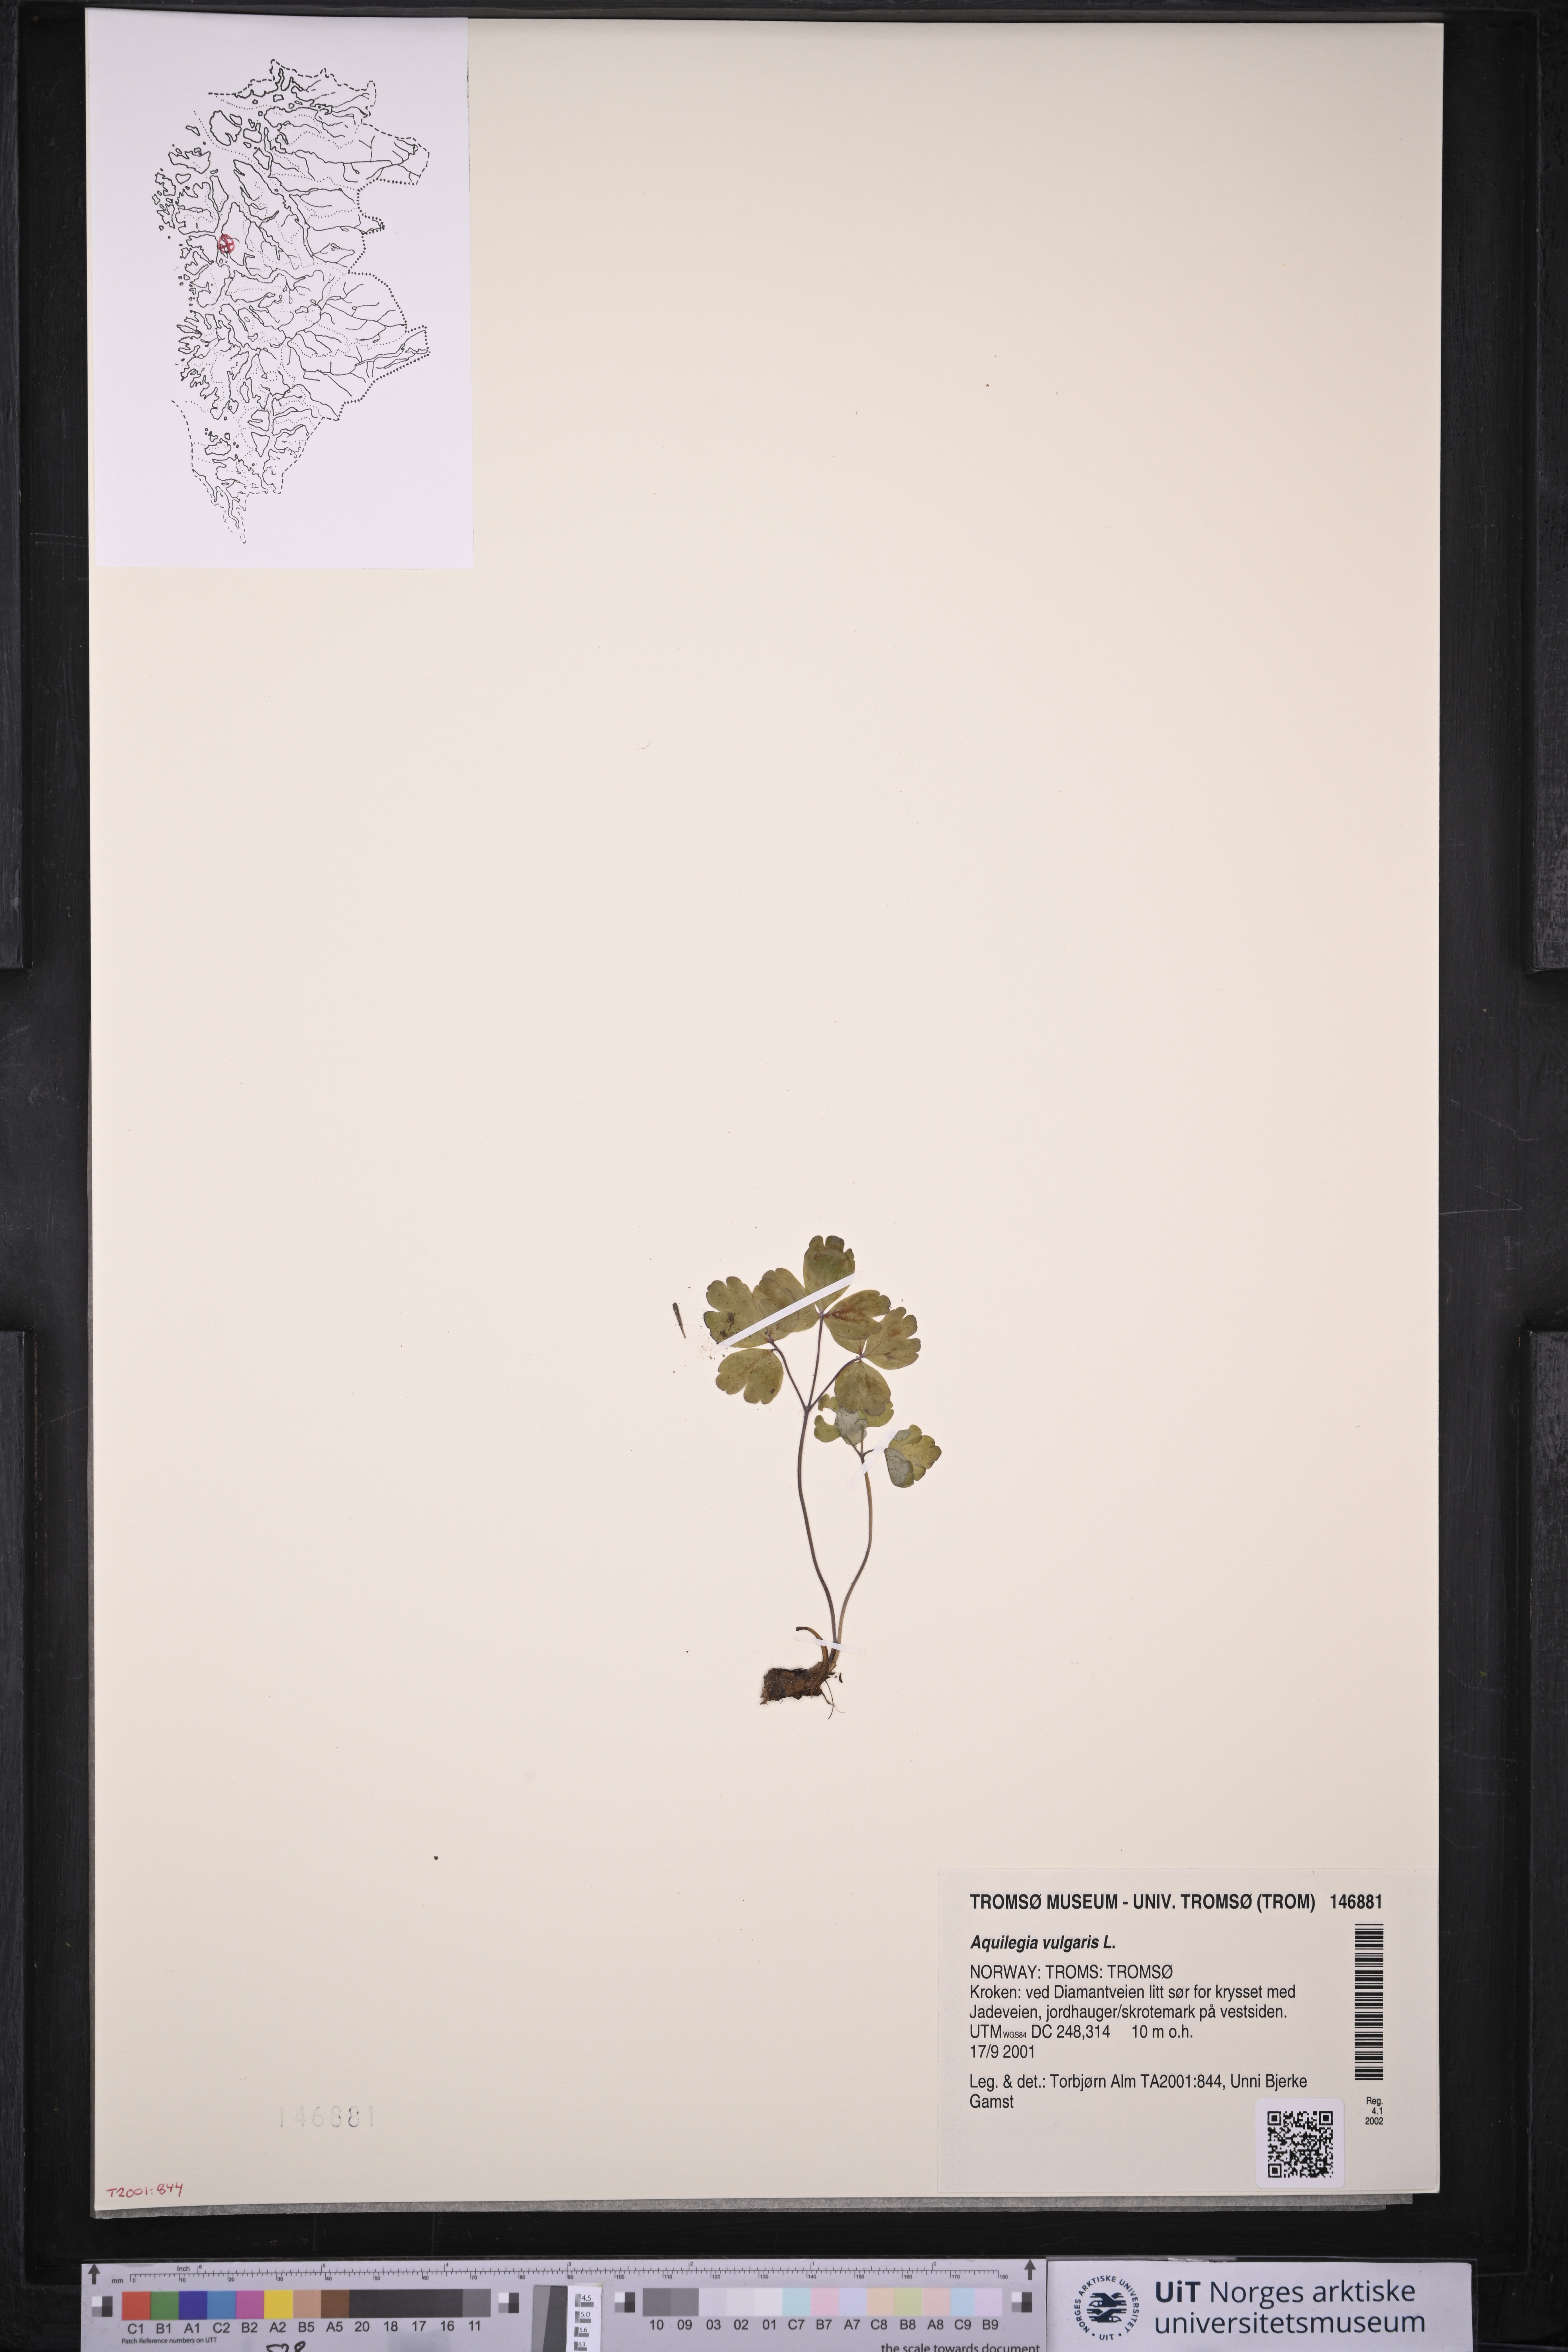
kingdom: Plantae
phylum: Tracheophyta
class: Magnoliopsida
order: Ranunculales
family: Ranunculaceae
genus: Aquilegia
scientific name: Aquilegia vulgaris
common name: Columbine
